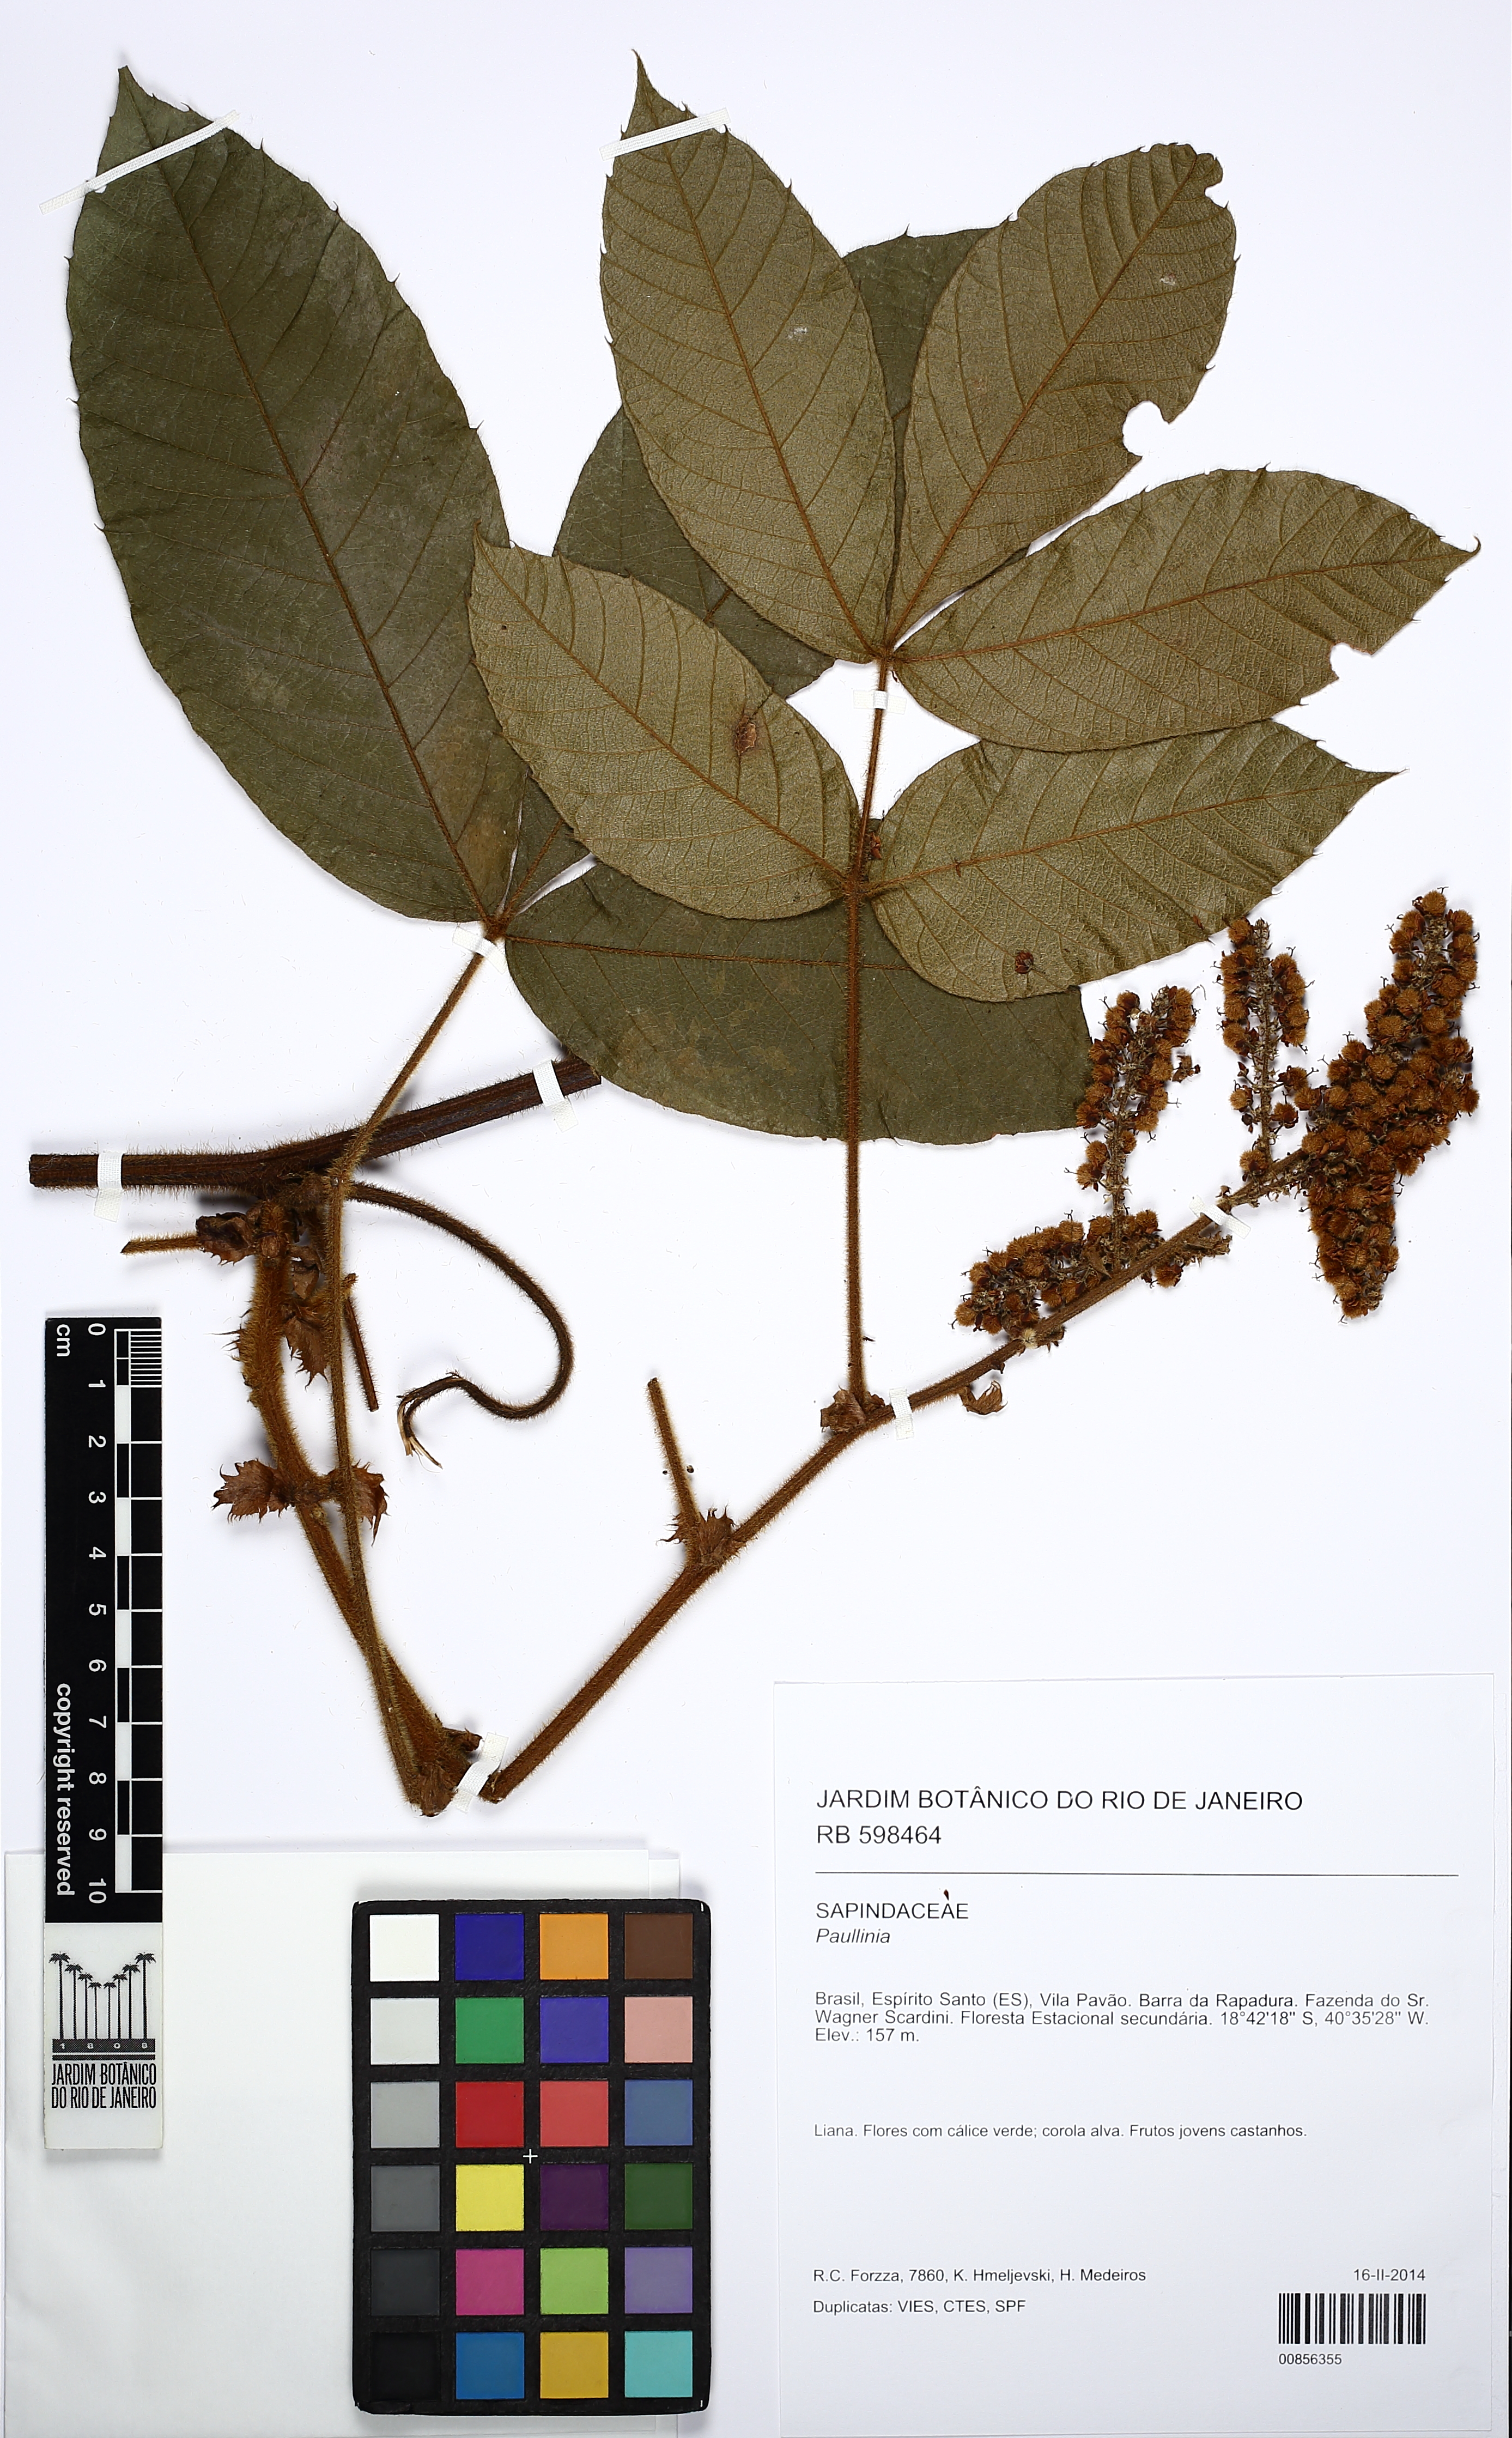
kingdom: Plantae
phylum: Tracheophyta
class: Magnoliopsida
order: Sapindales
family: Sapindaceae
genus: Paullinia
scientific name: Paullinia rubiginosa
